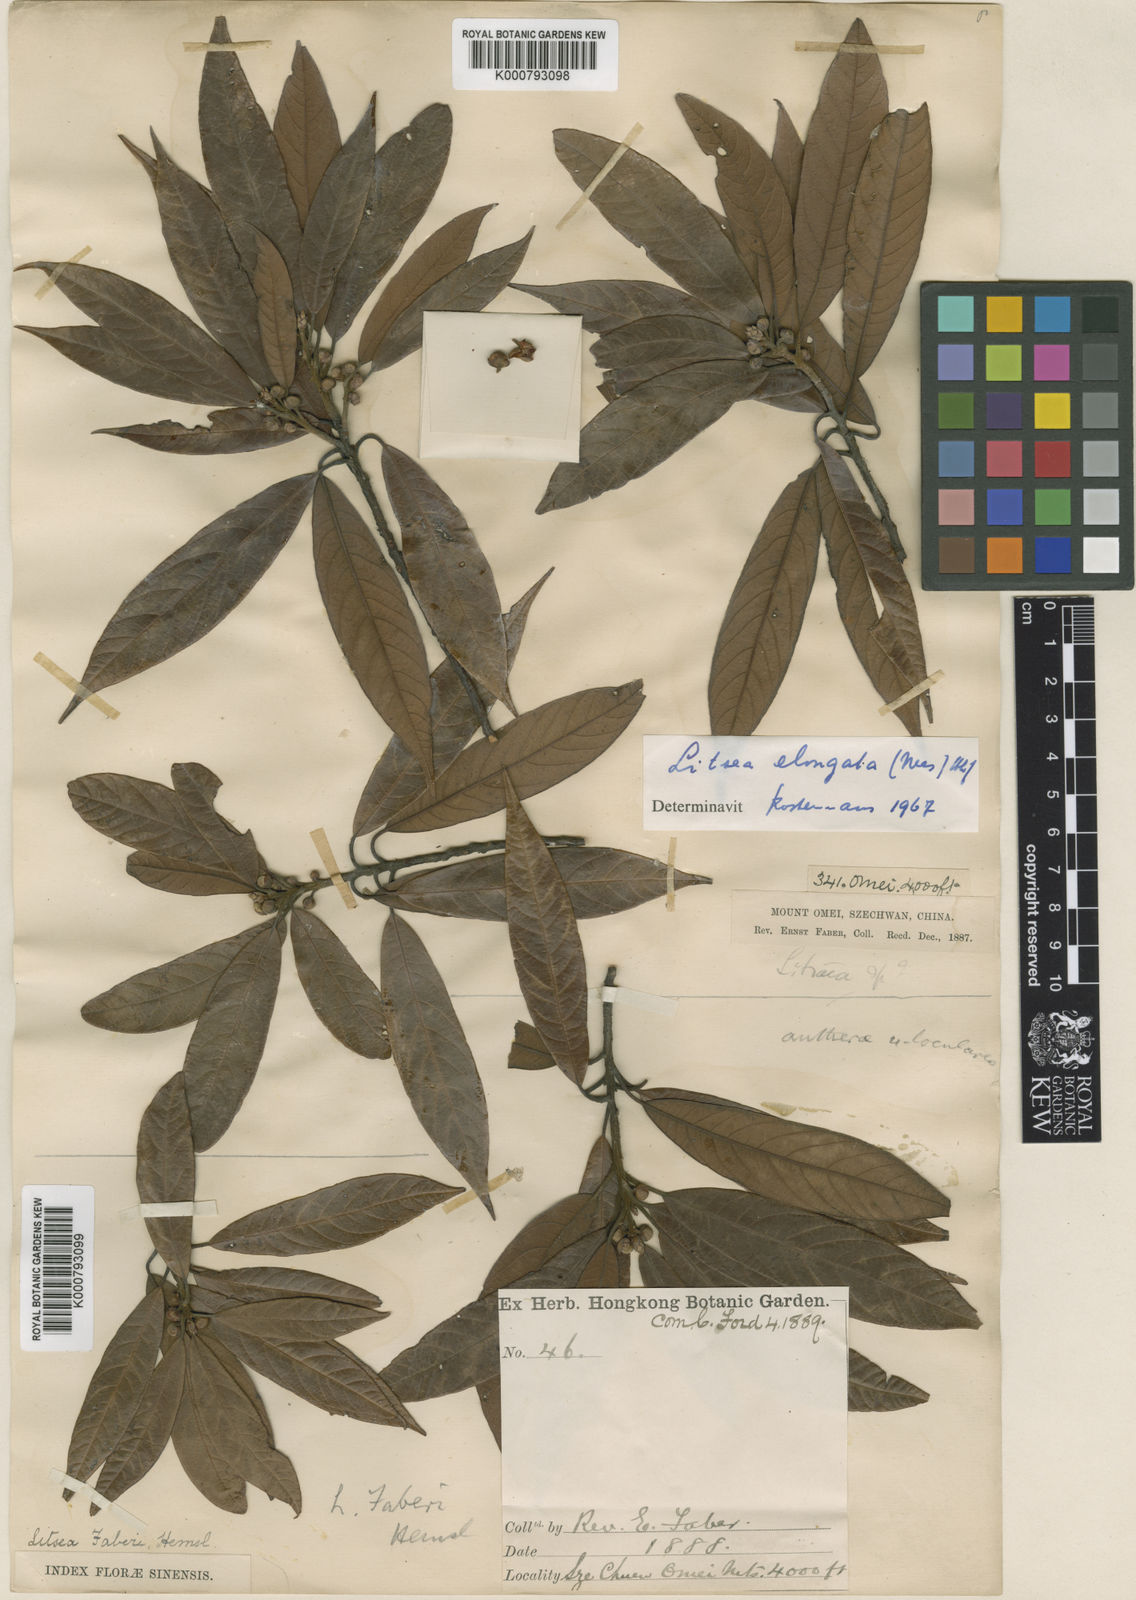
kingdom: Plantae
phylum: Tracheophyta
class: Magnoliopsida
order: Laurales
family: Lauraceae
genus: Litsea
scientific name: Litsea elongata
